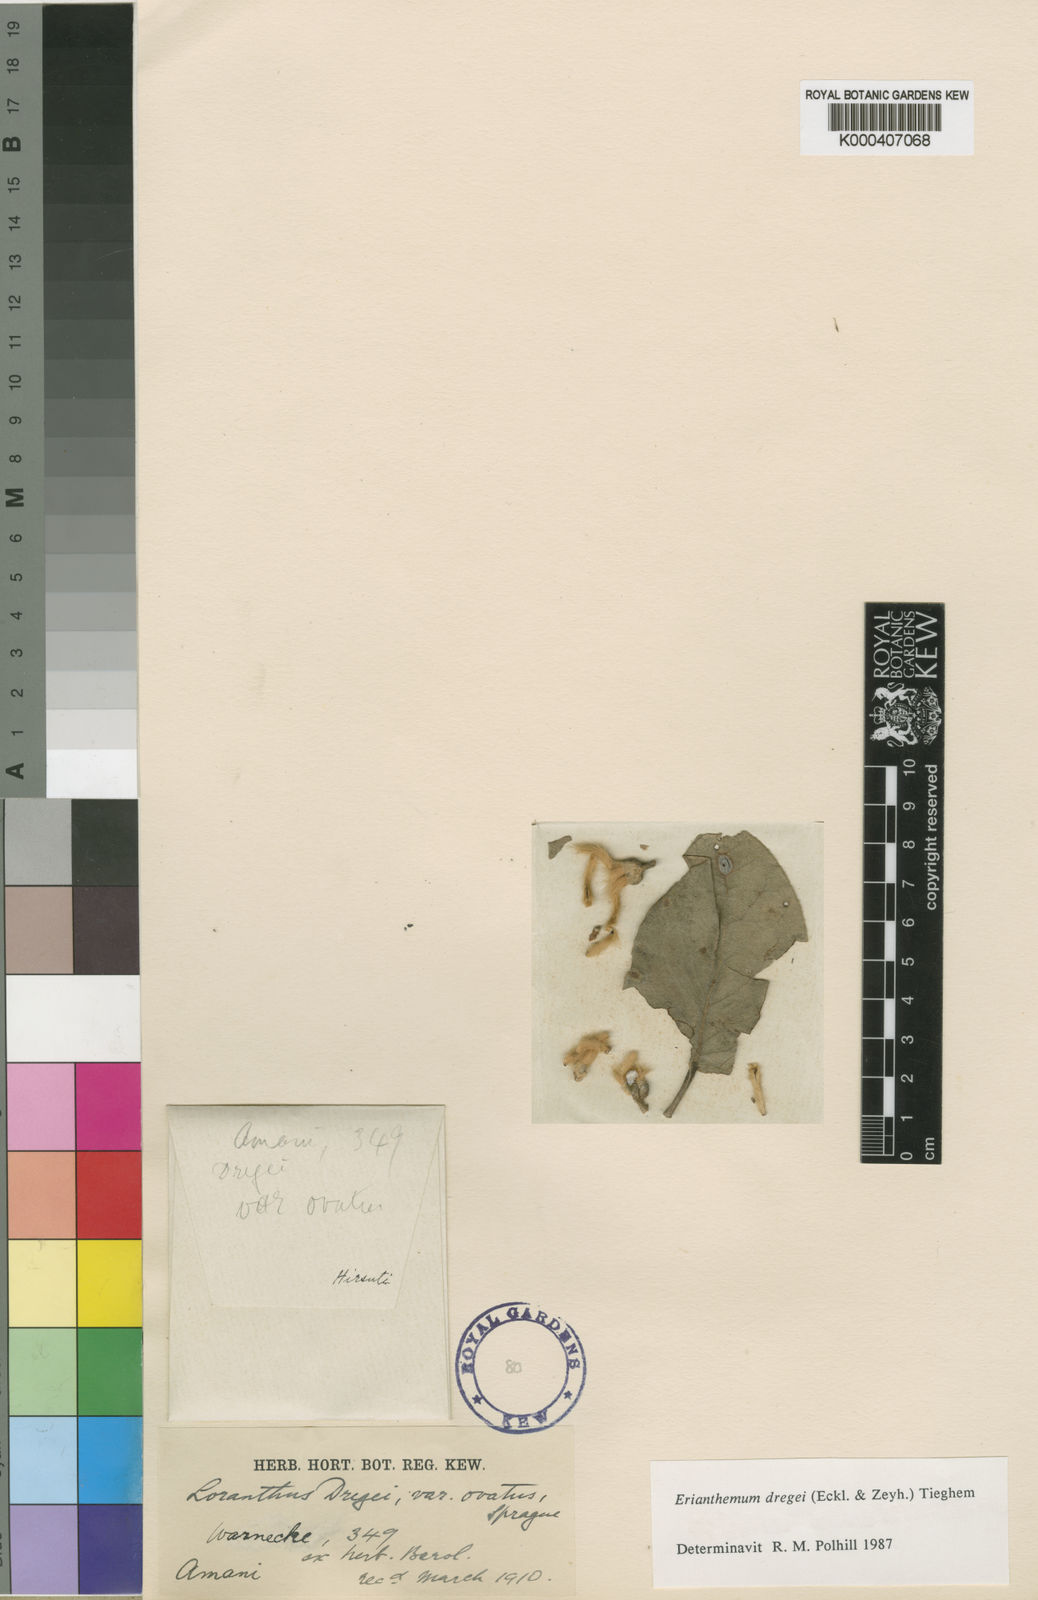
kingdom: Plantae
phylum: Tracheophyta
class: Magnoliopsida
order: Santalales
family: Loranthaceae
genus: Erianthemum
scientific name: Erianthemum dregei
